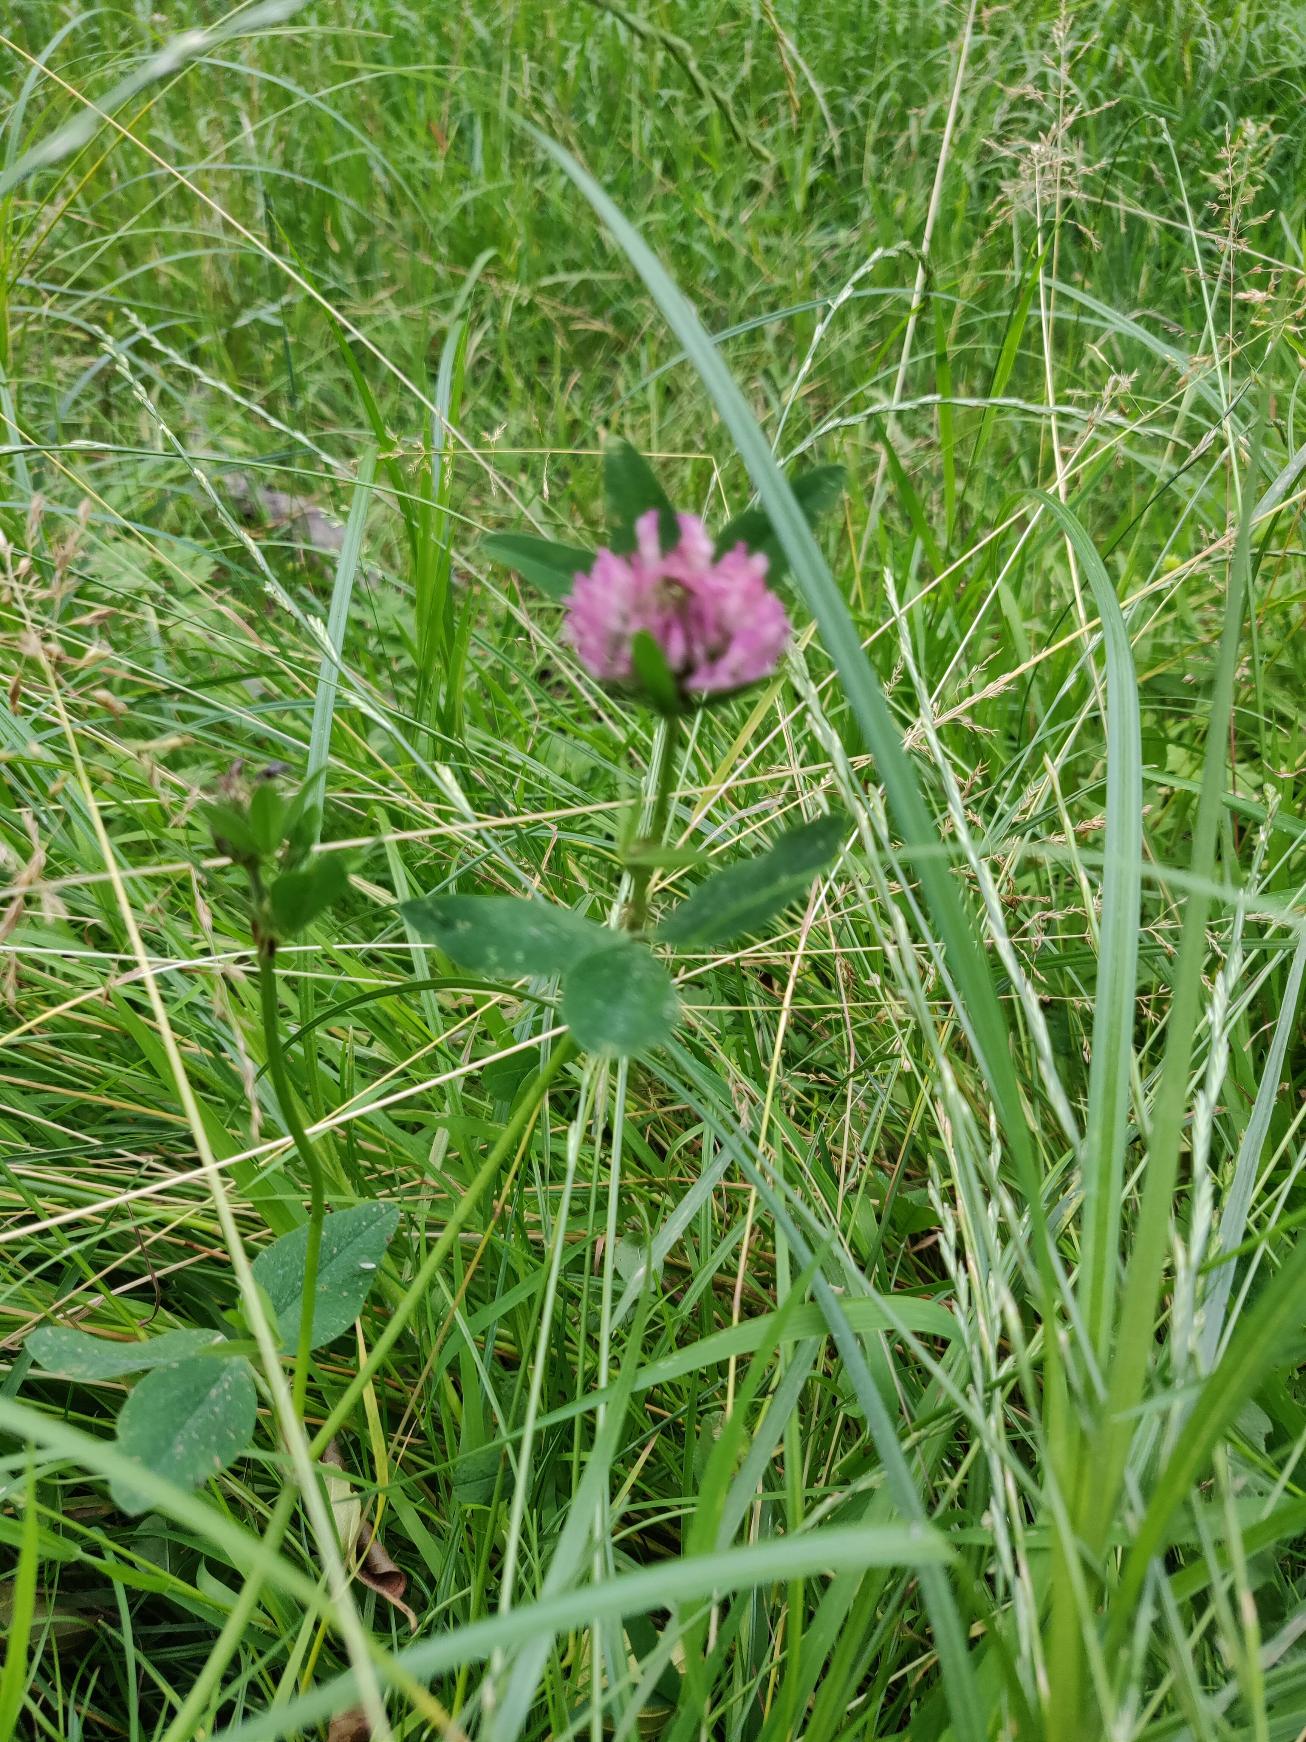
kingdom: Plantae
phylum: Tracheophyta
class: Magnoliopsida
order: Fabales
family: Fabaceae
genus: Trifolium
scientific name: Trifolium pratense
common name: Rød-kløver
